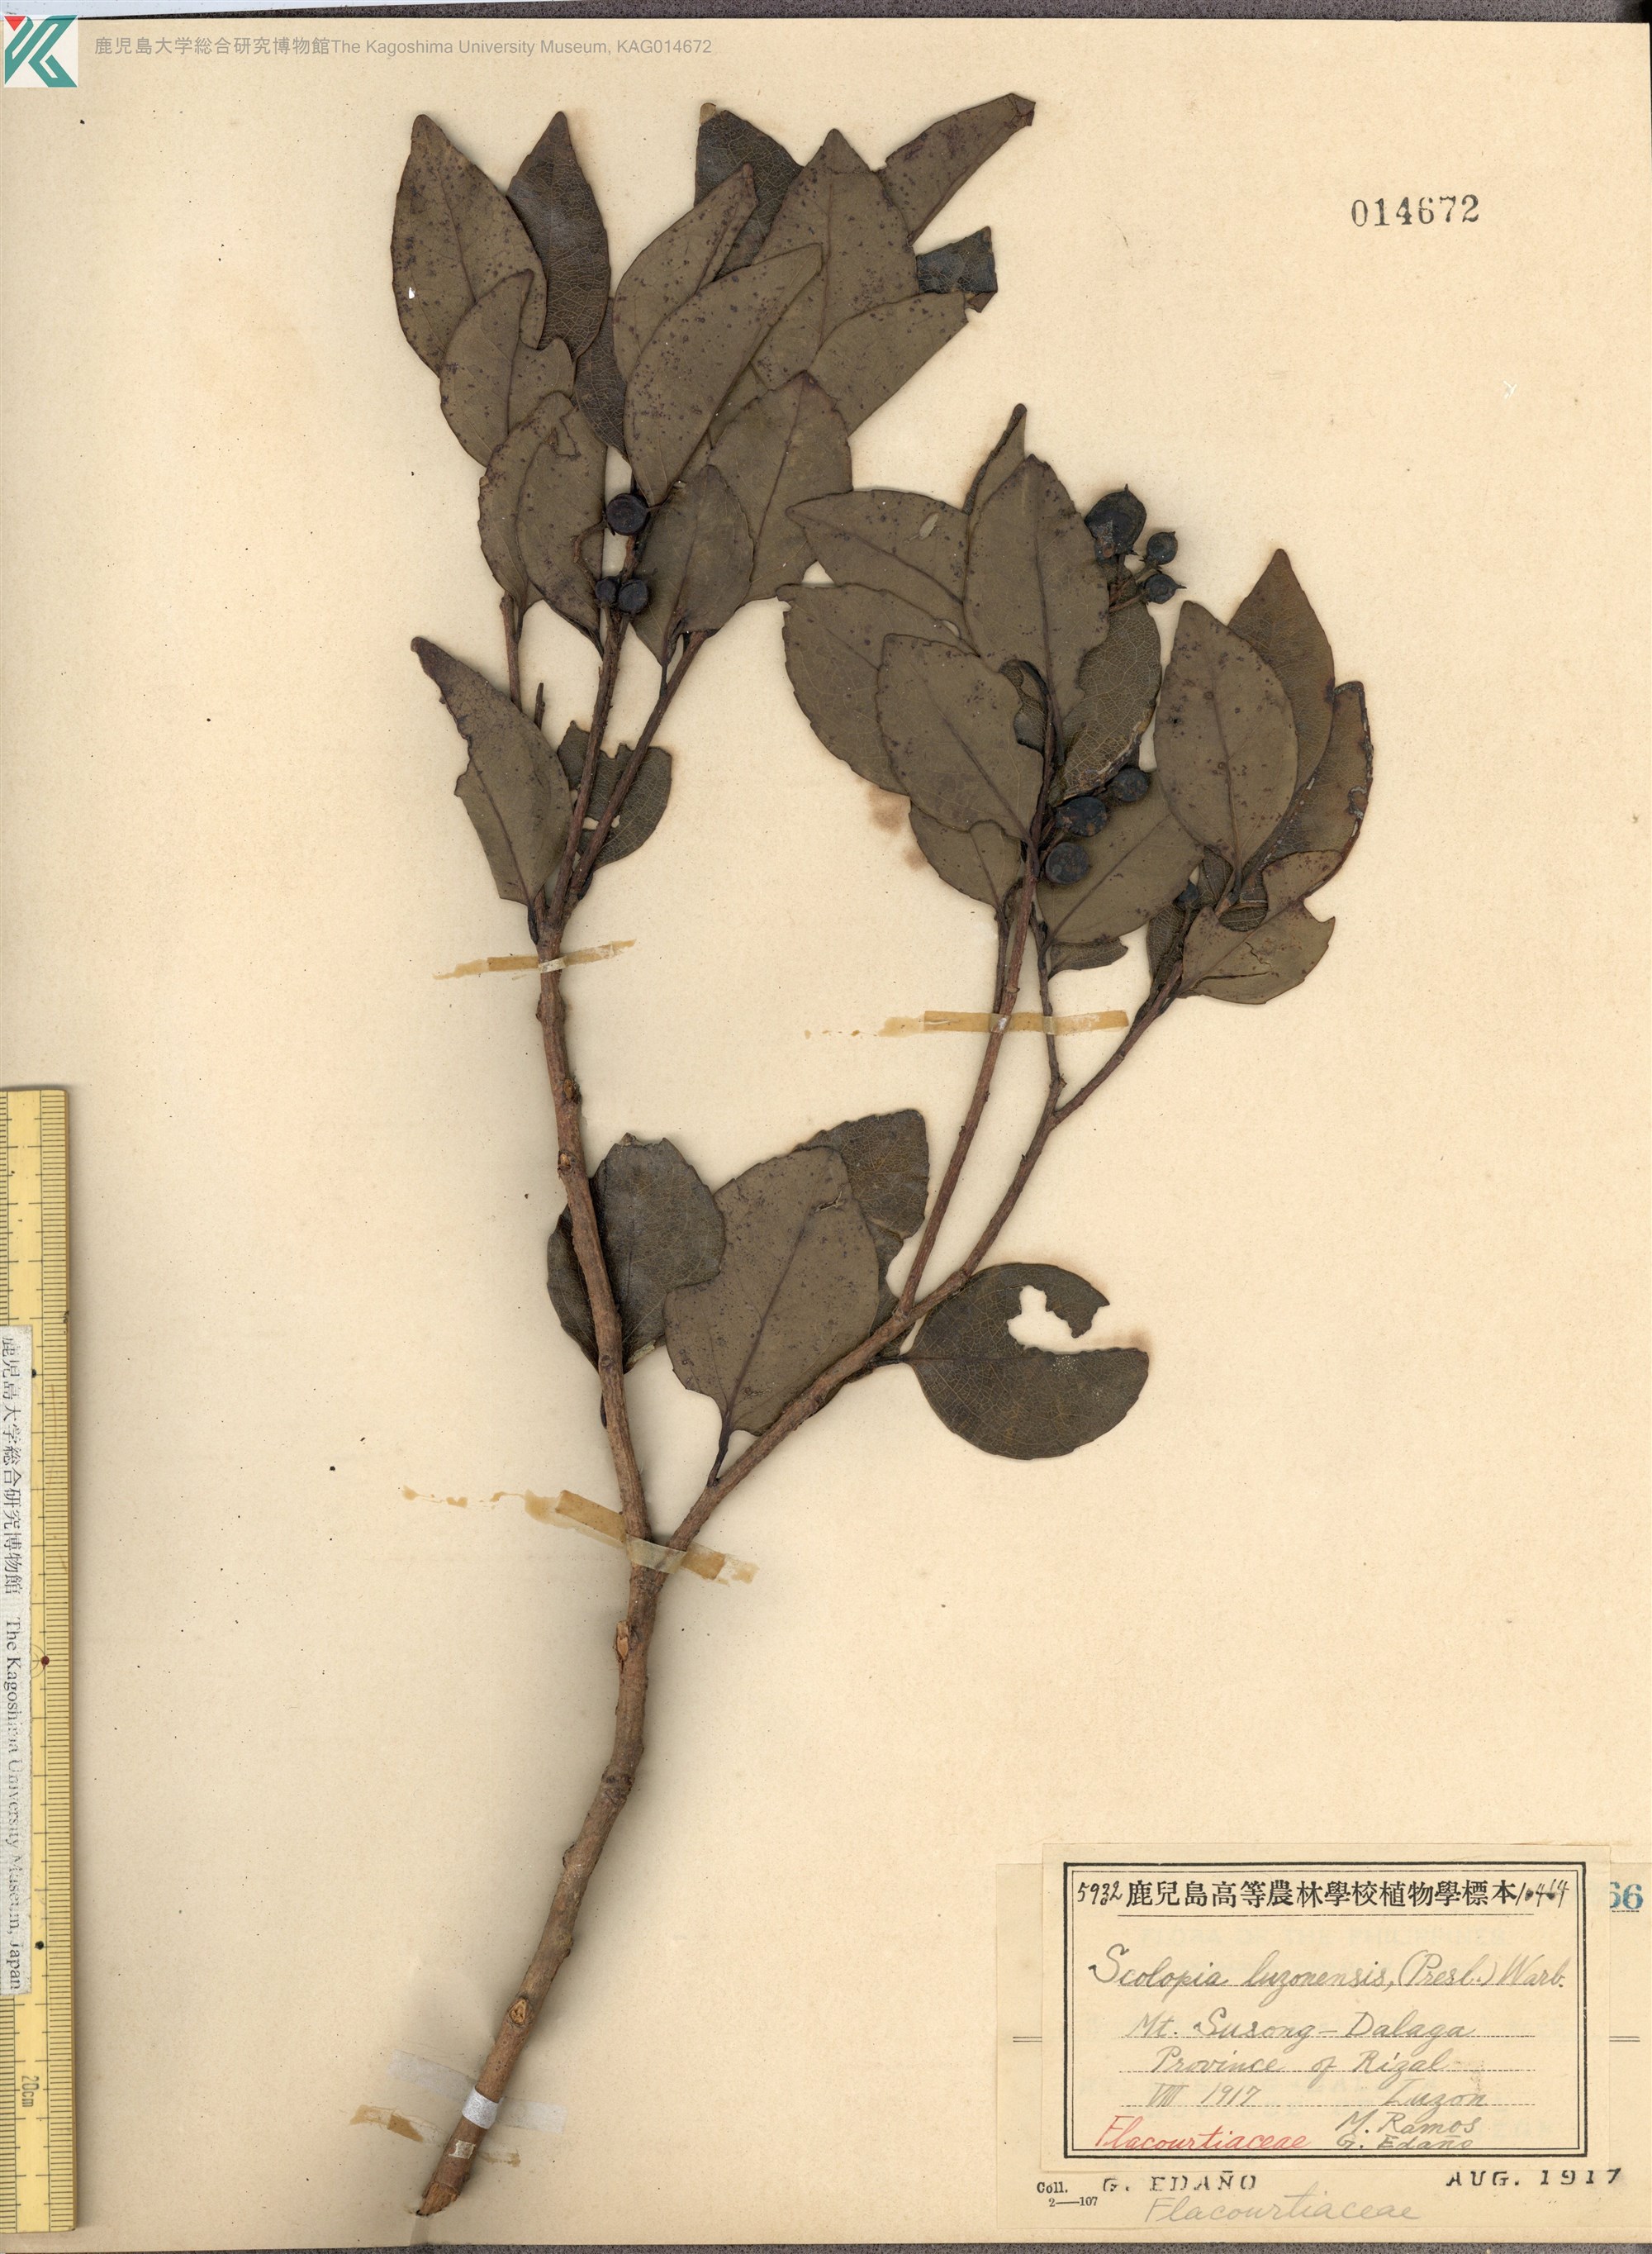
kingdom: Plantae
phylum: Tracheophyta
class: Magnoliopsida
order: Malpighiales
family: Salicaceae
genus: Scolopia
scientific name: Scolopia luzonensis
